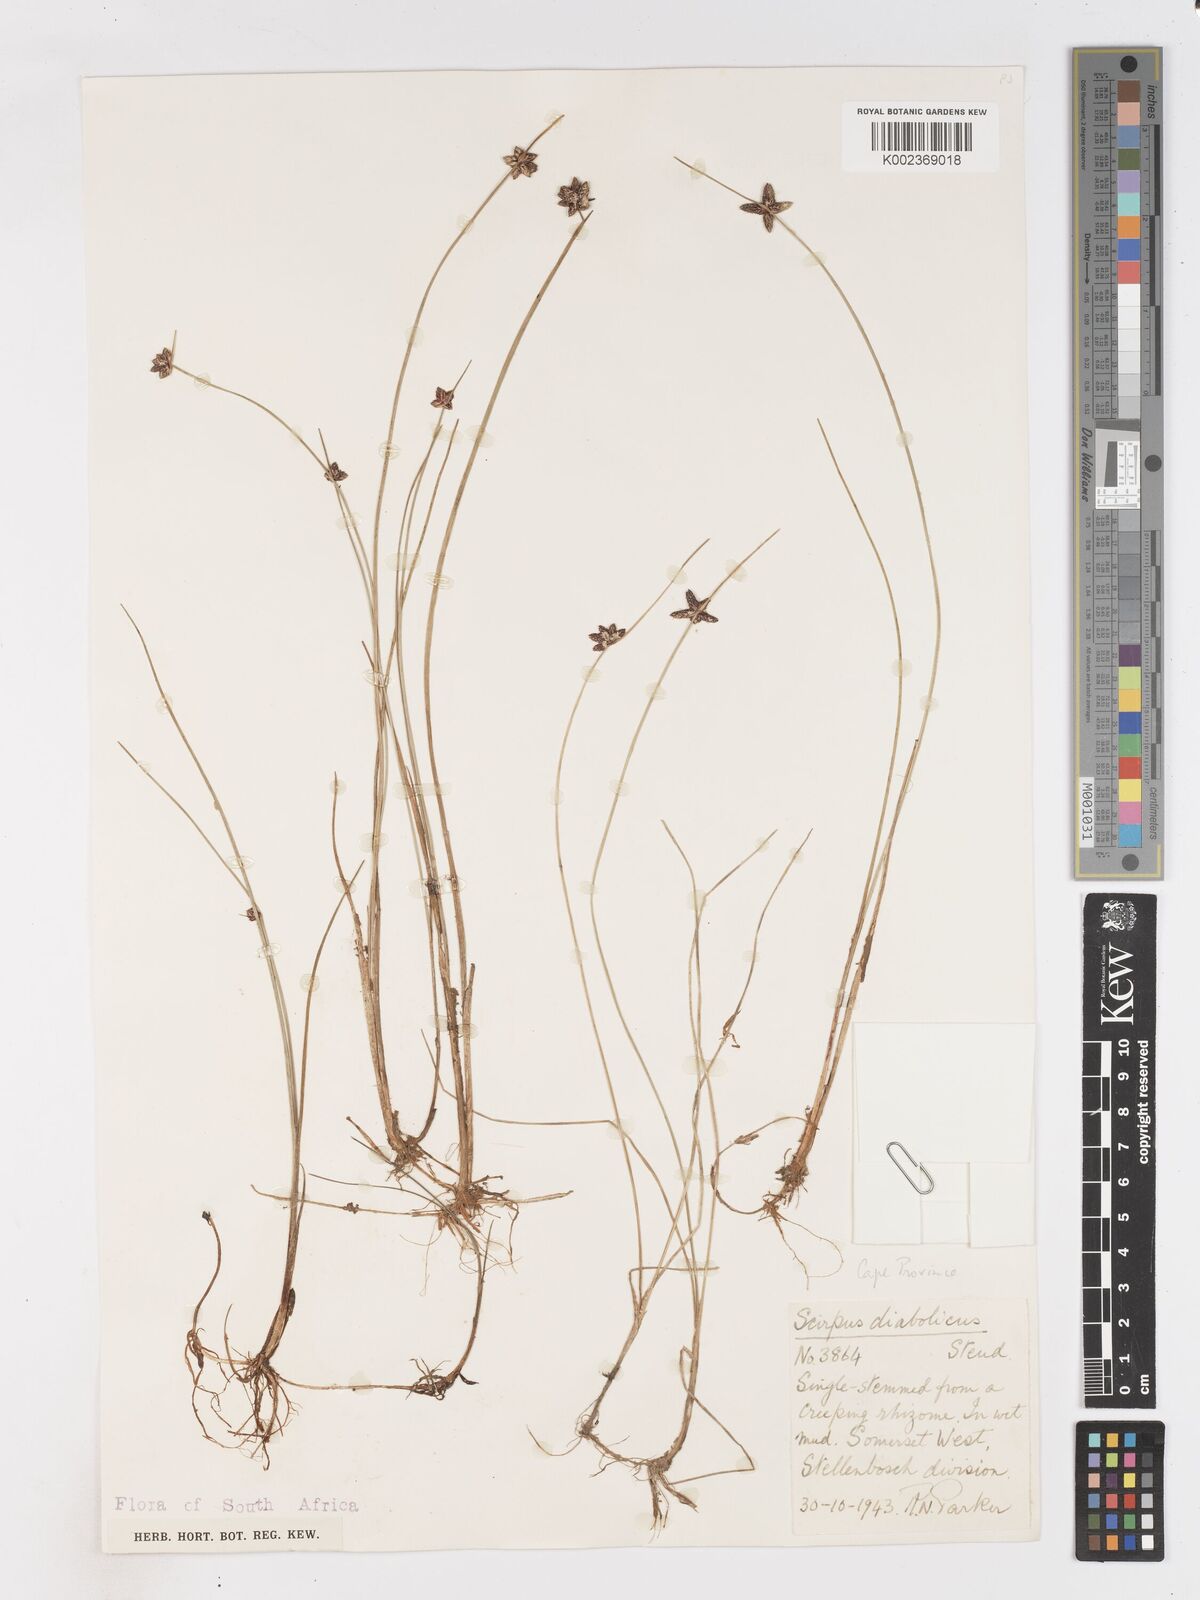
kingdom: Plantae
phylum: Tracheophyta
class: Liliopsida
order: Poales
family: Cyperaceae
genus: Isolepis
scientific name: Isolepis diabolica
